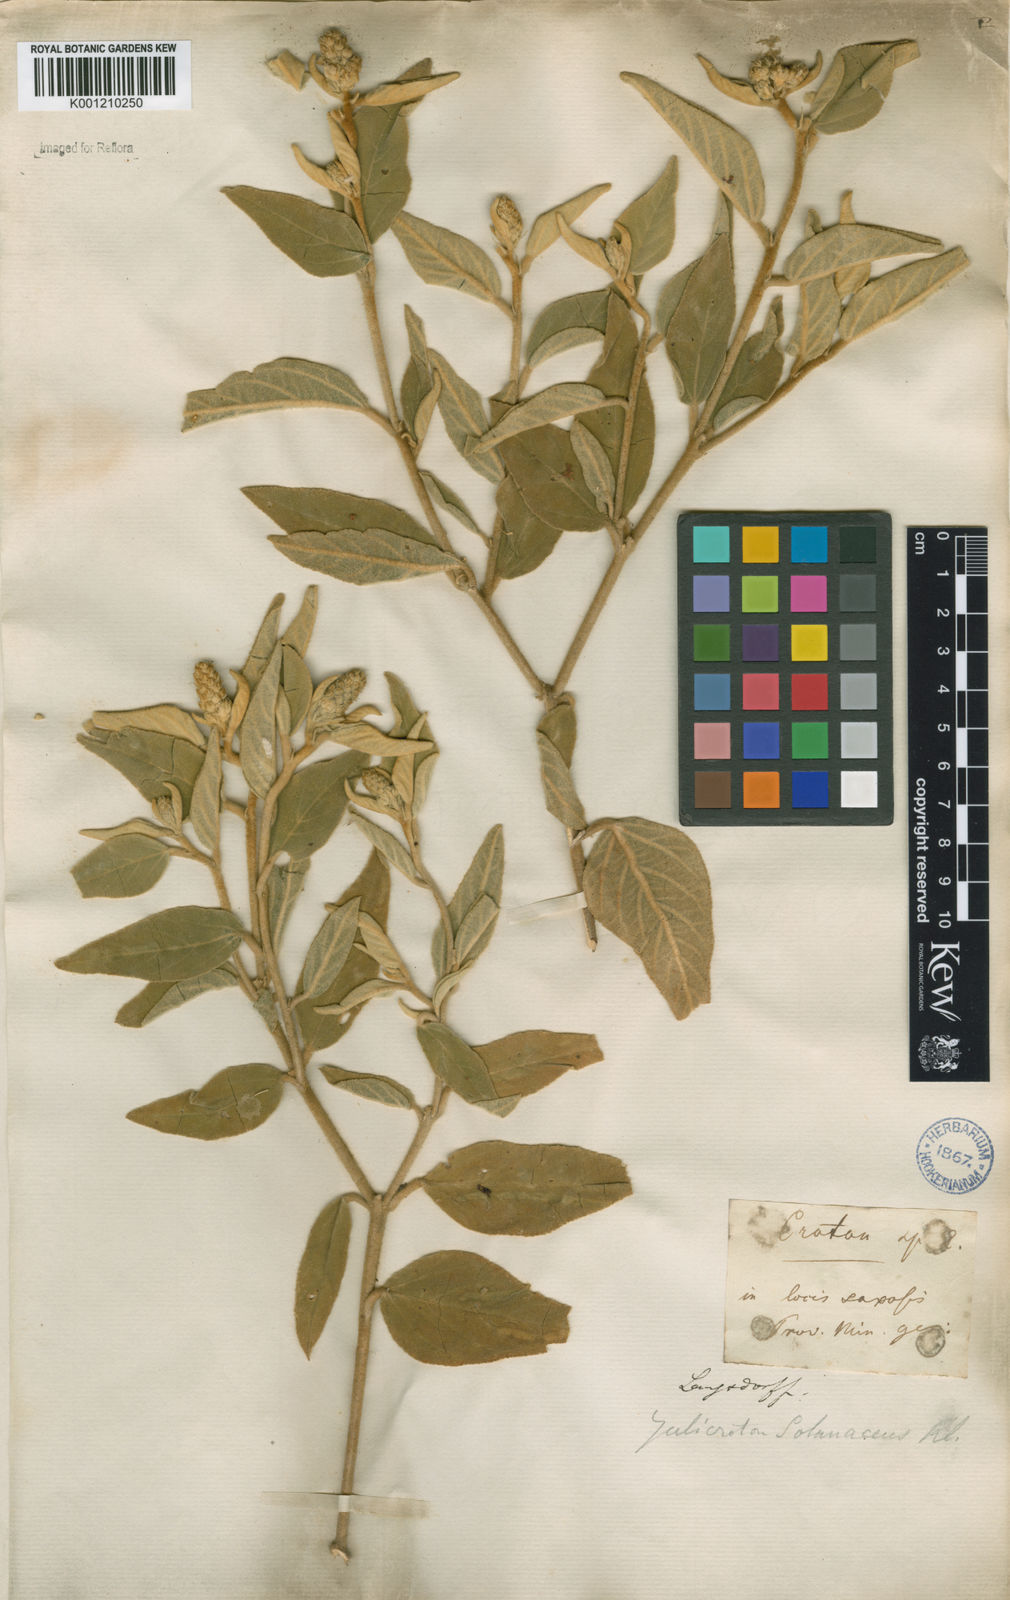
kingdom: Plantae
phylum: Tracheophyta
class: Magnoliopsida
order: Malpighiales
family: Euphorbiaceae
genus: Croton
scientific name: Croton
